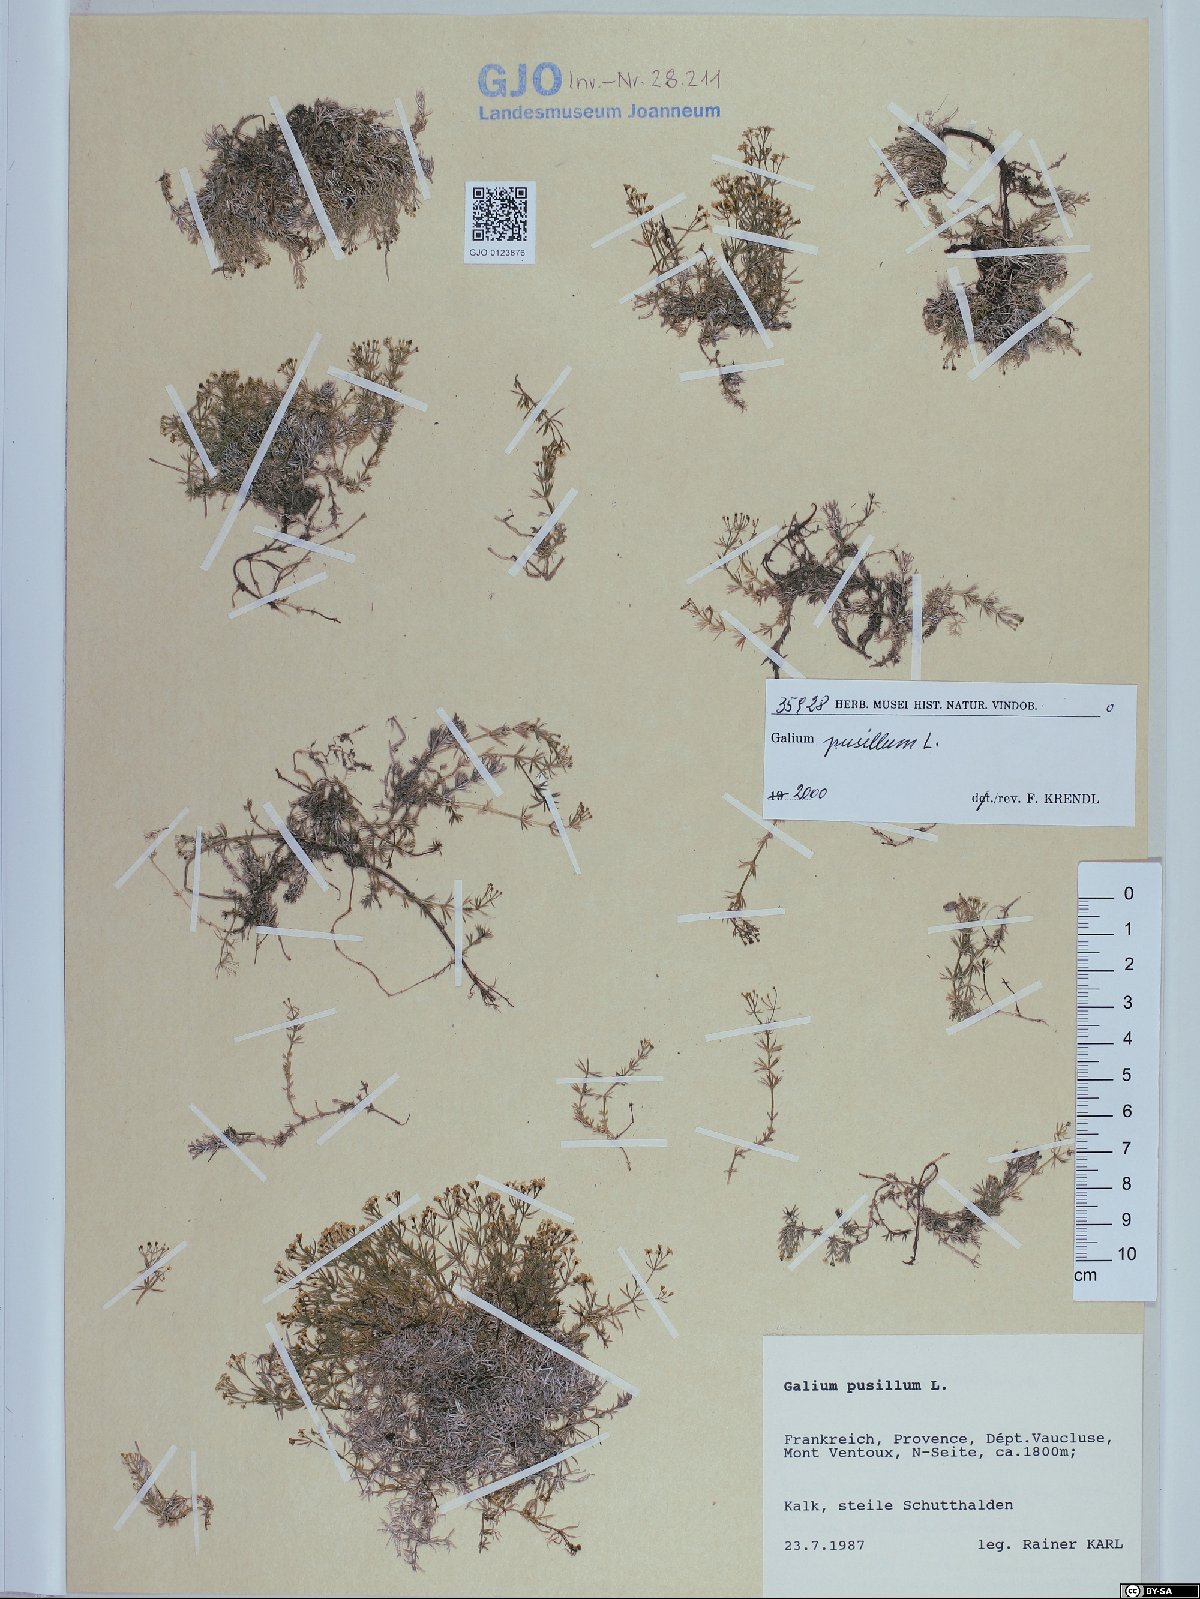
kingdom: Plantae
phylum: Tracheophyta
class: Magnoliopsida
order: Gentianales
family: Rubiaceae
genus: Galium
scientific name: Galium pusillum
